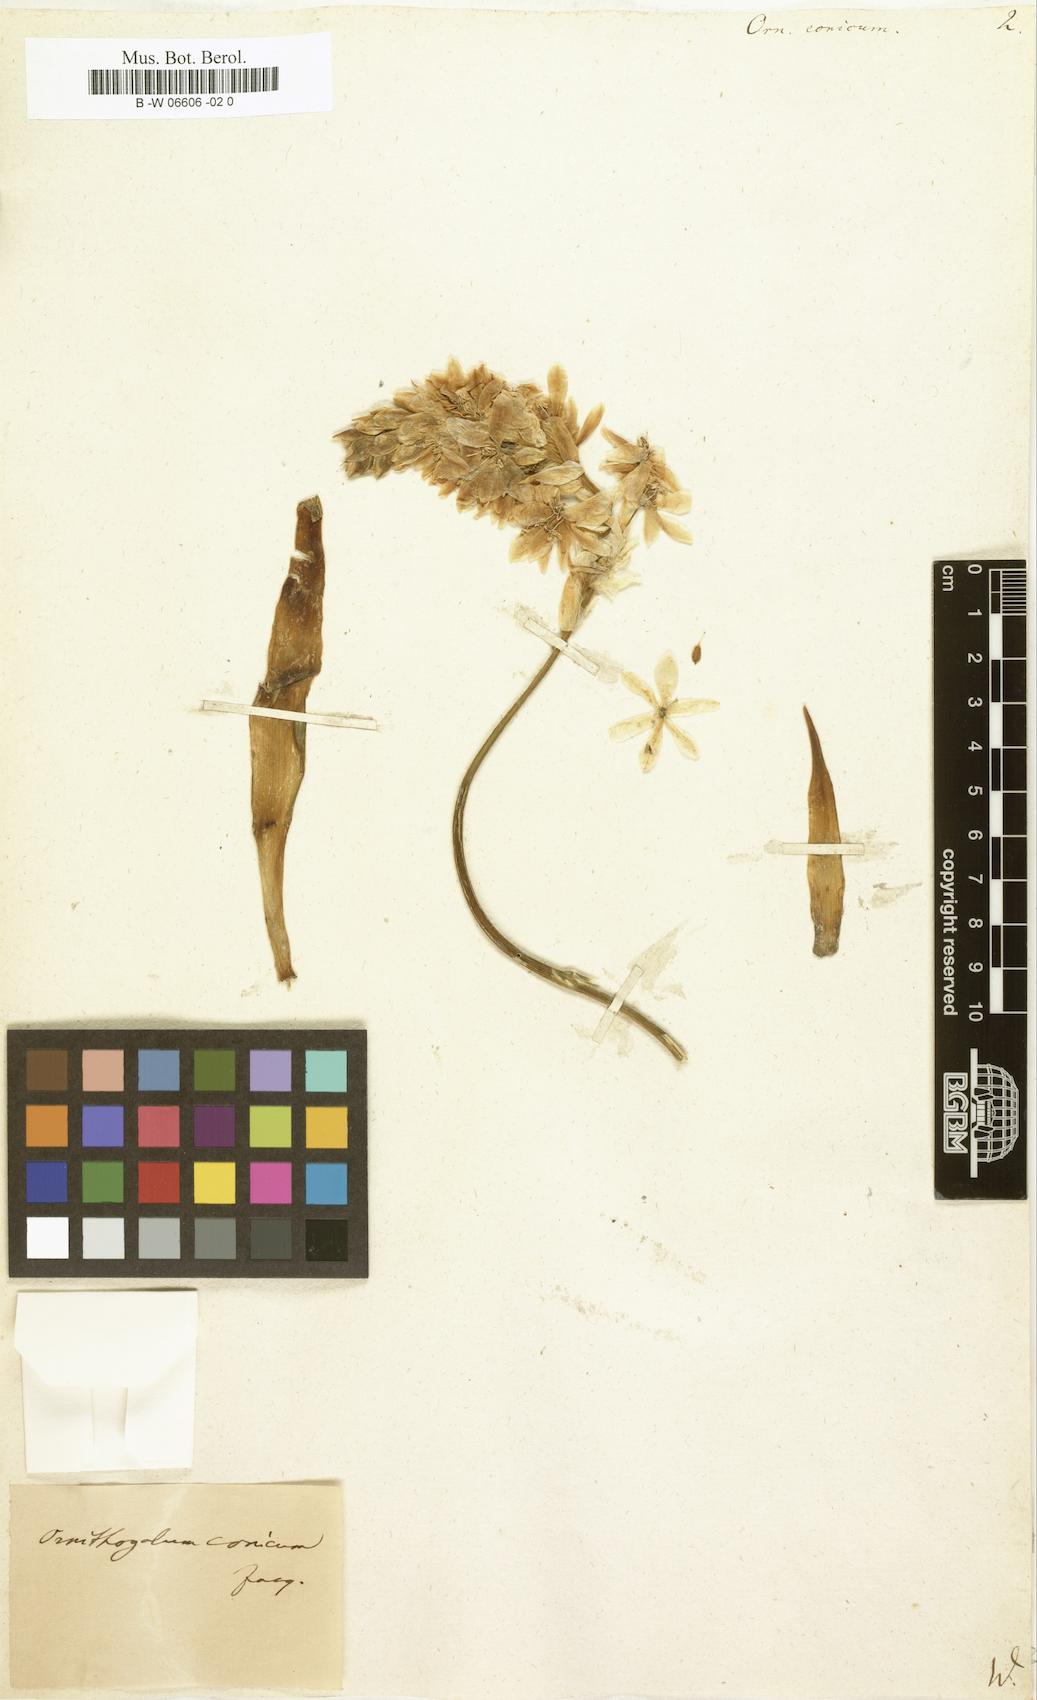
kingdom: Plantae
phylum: Tracheophyta
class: Liliopsida
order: Liliales
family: Liliaceae
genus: Ornithogalum
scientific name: Ornithogalum
